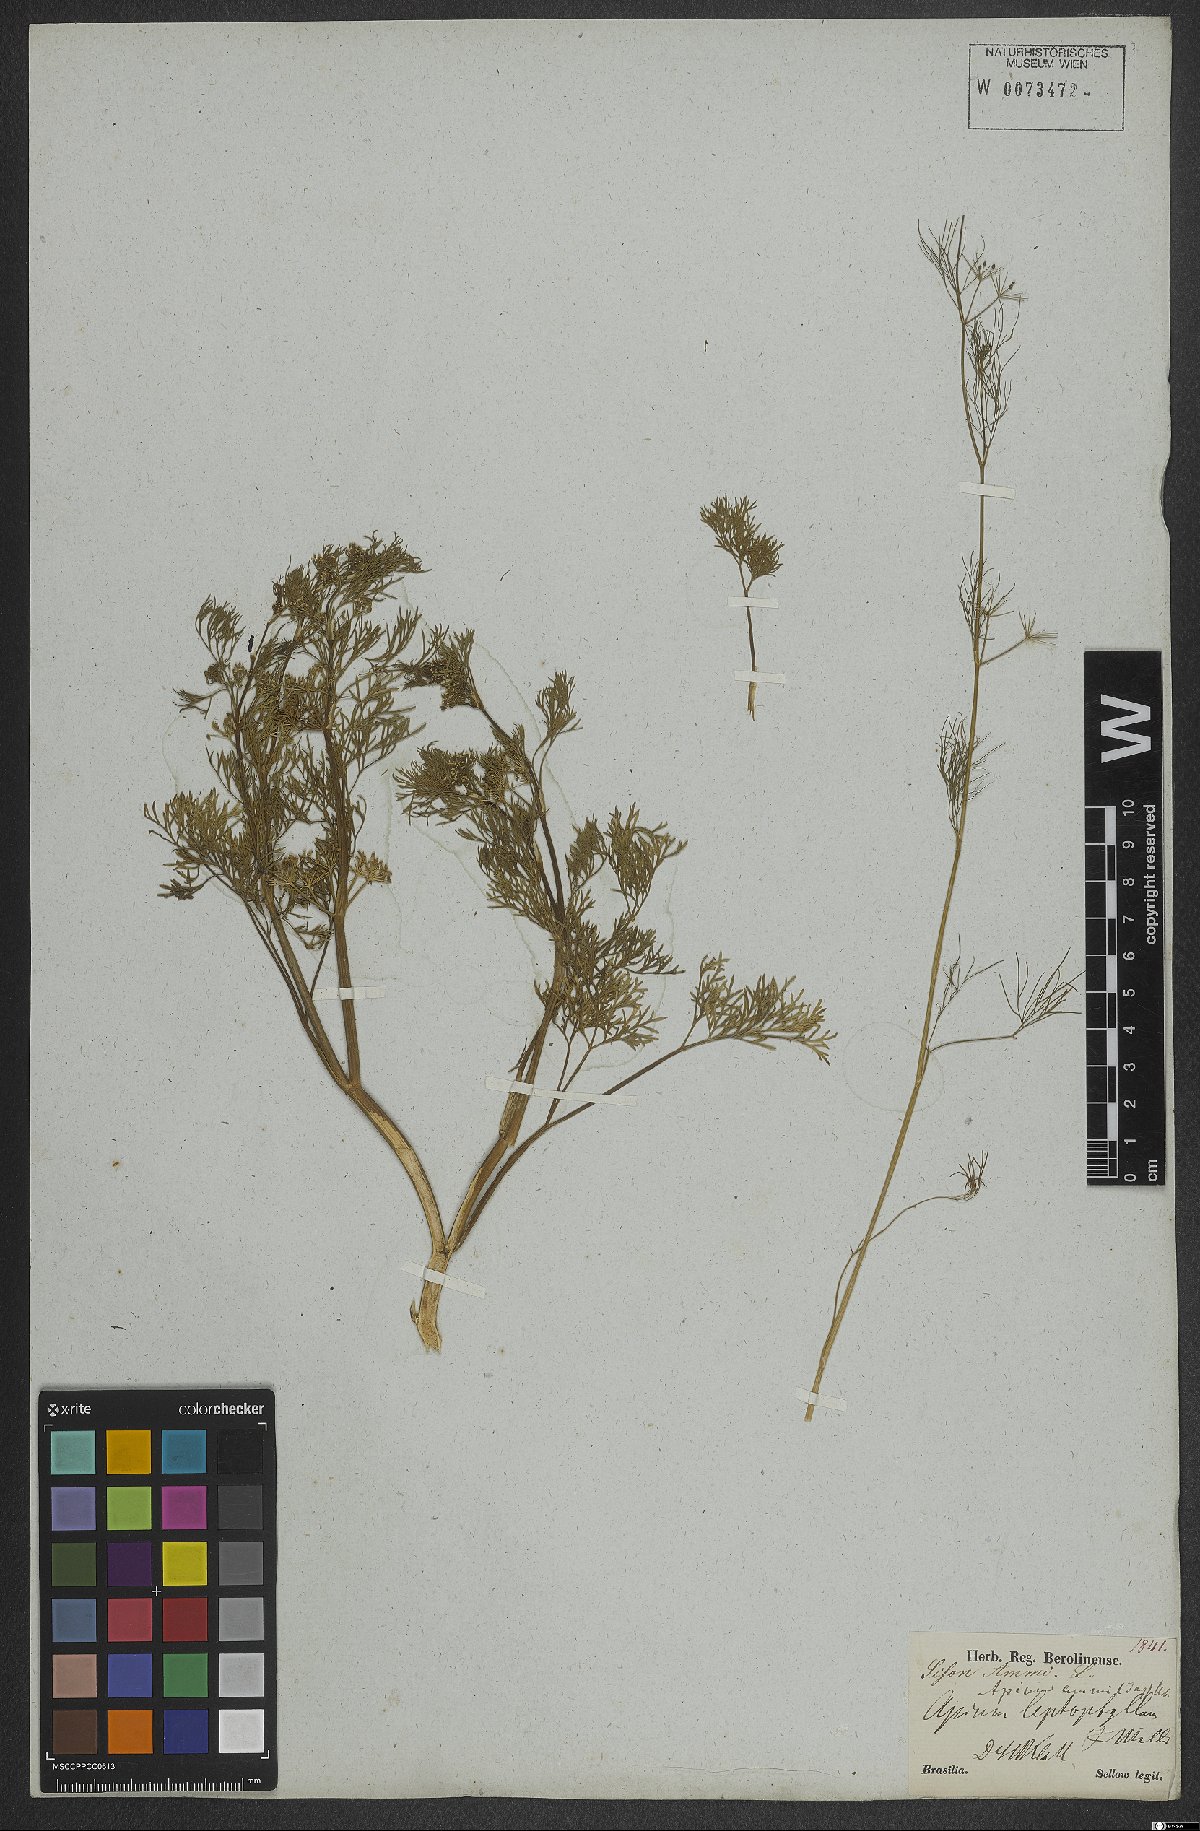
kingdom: Plantae
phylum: Tracheophyta
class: Magnoliopsida
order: Apiales
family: Apiaceae
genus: Cyclospermum
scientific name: Cyclospermum leptophyllum
